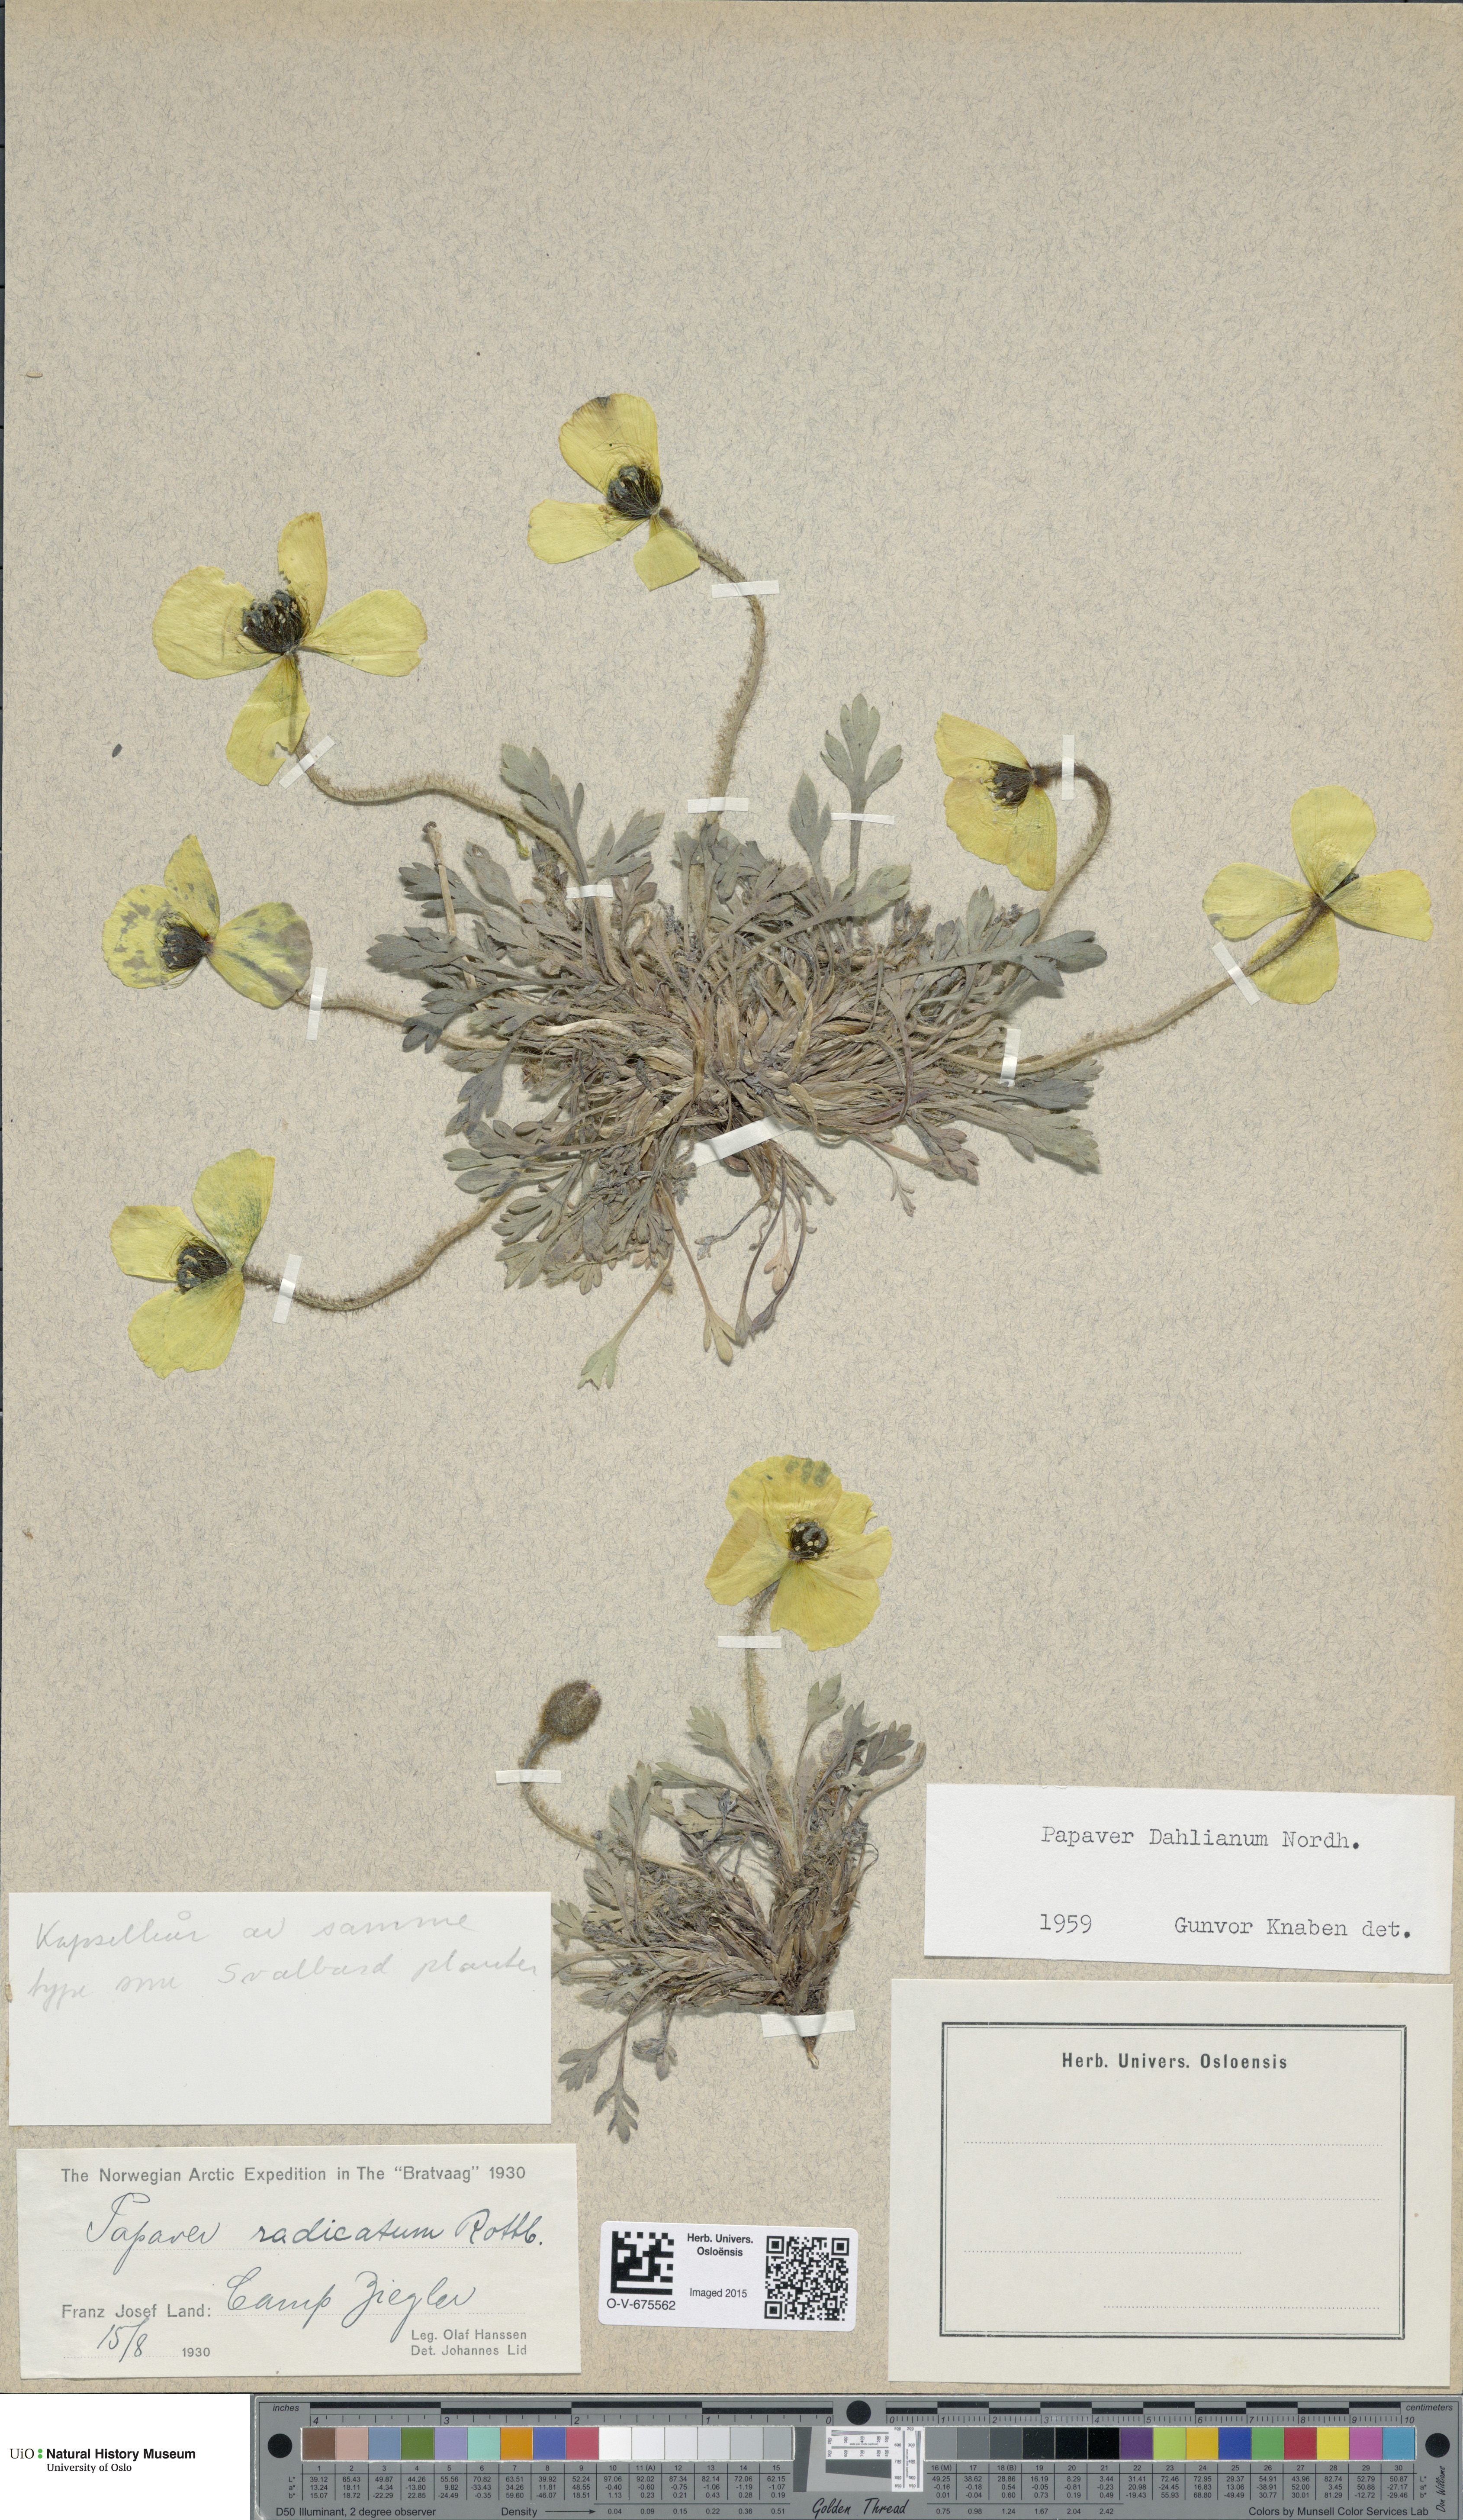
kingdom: Plantae
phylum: Tracheophyta
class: Magnoliopsida
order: Ranunculales
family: Papaveraceae
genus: Papaver
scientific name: Papaver radicatum
